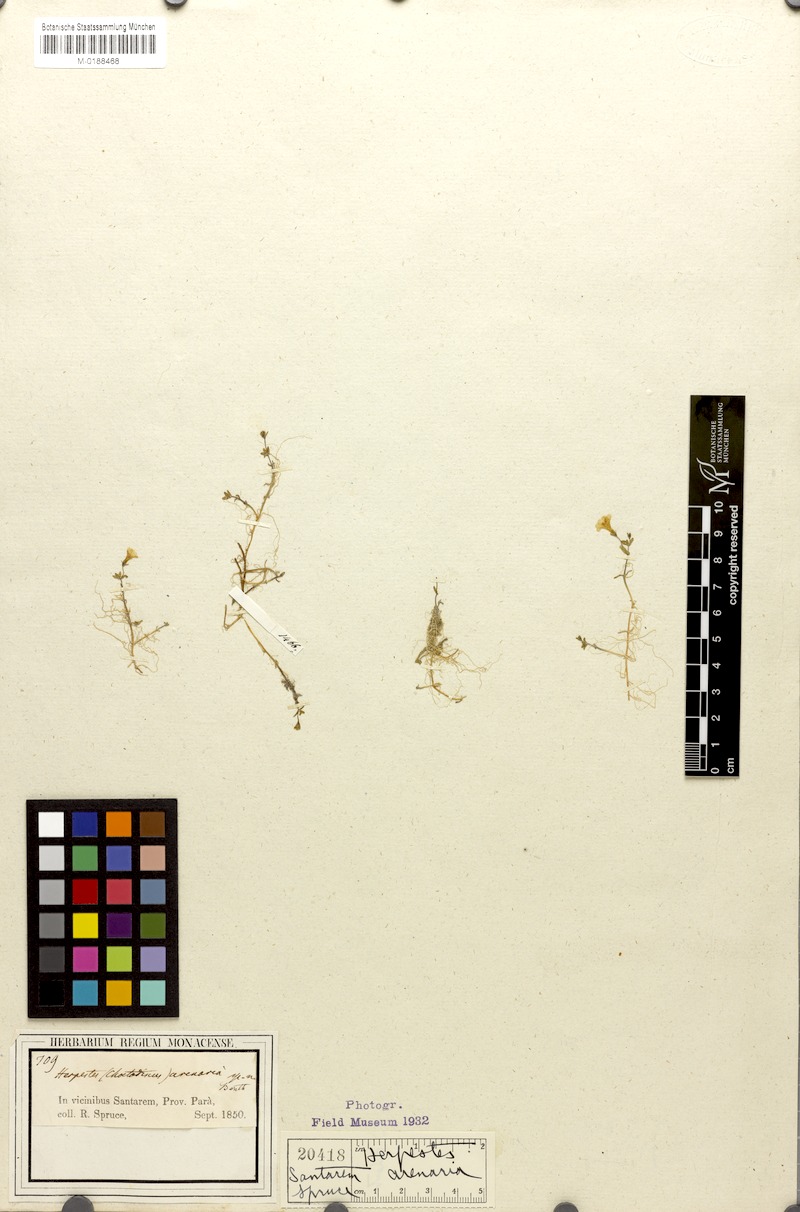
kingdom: Plantae
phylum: Tracheophyta
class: Magnoliopsida
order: Lamiales
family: Plantaginaceae
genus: Bacopa
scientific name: Bacopa arenaria
